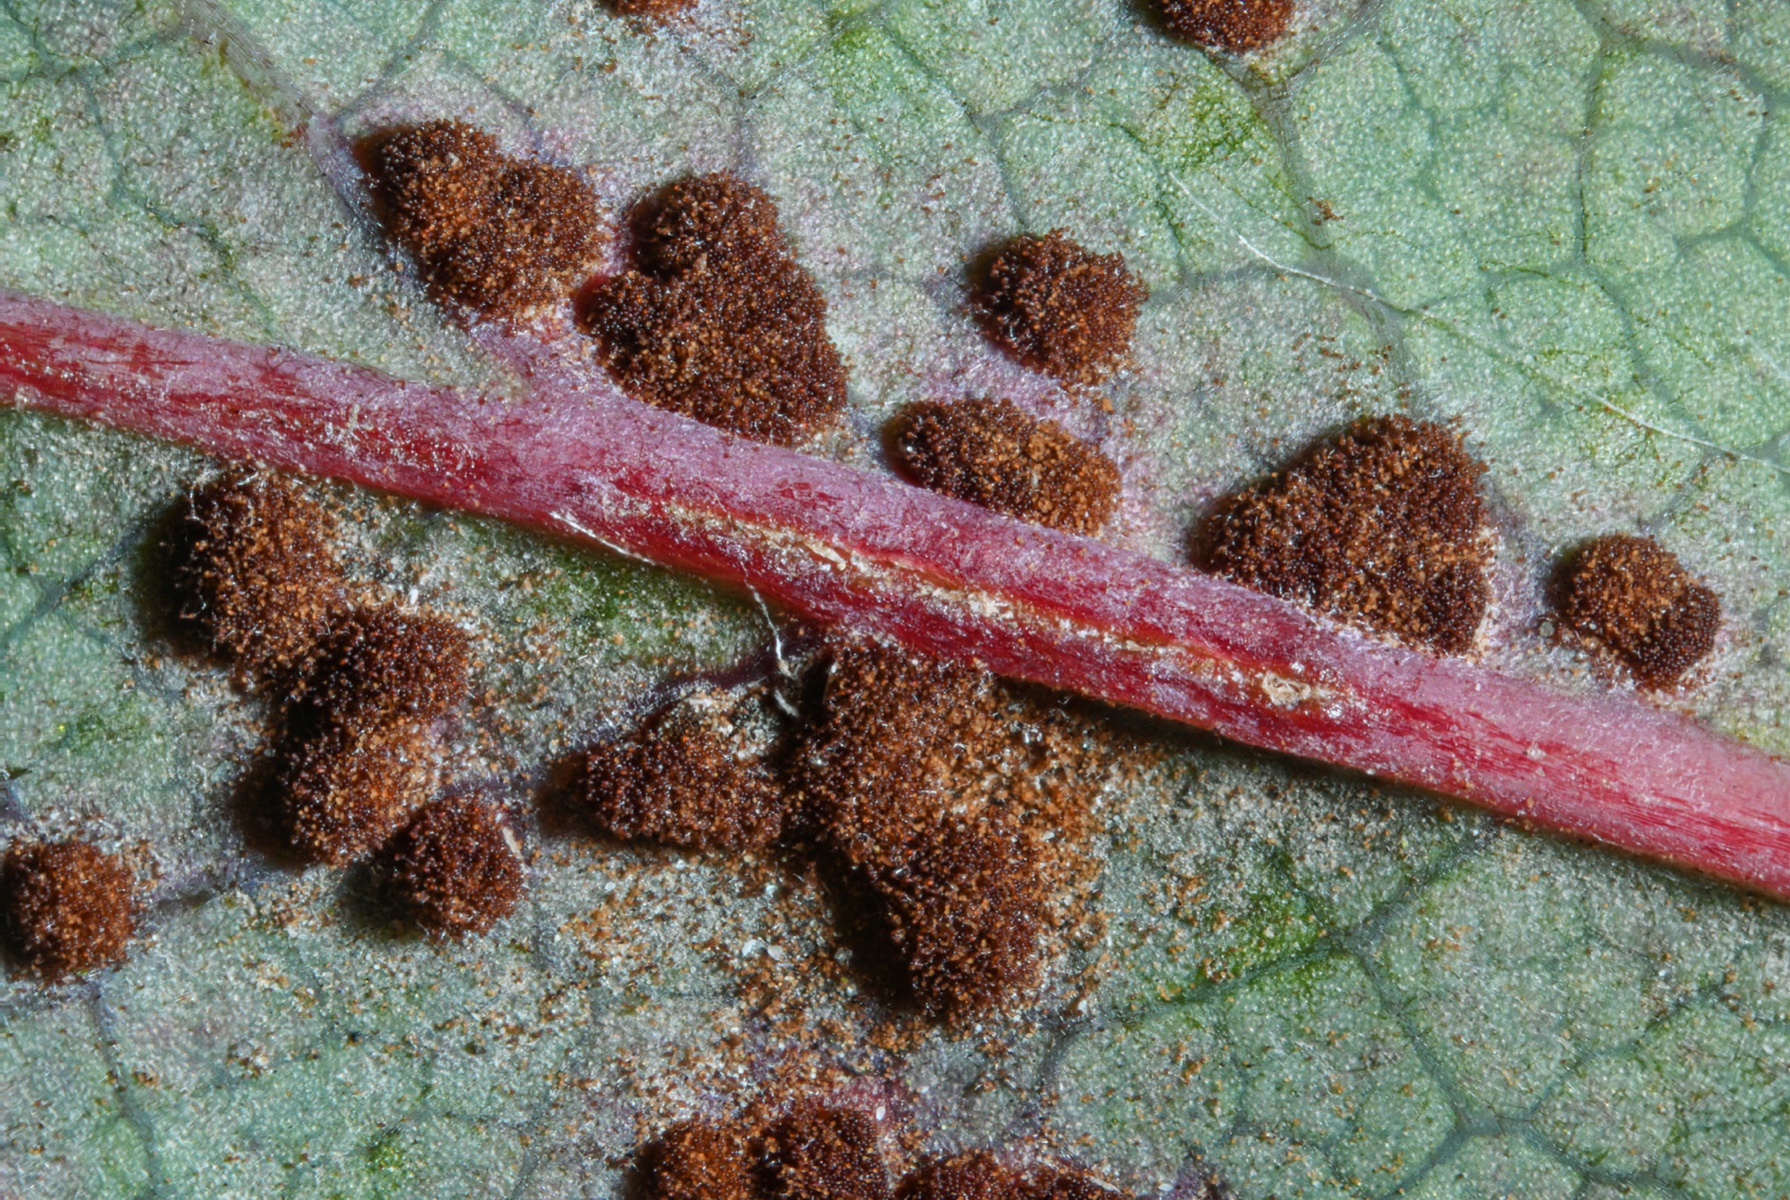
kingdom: Fungi
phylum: Basidiomycota
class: Pucciniomycetes
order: Pucciniales
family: Pucciniaceae
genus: Cumminsiella
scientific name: Cumminsiella mirabilissima
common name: mahonierust
